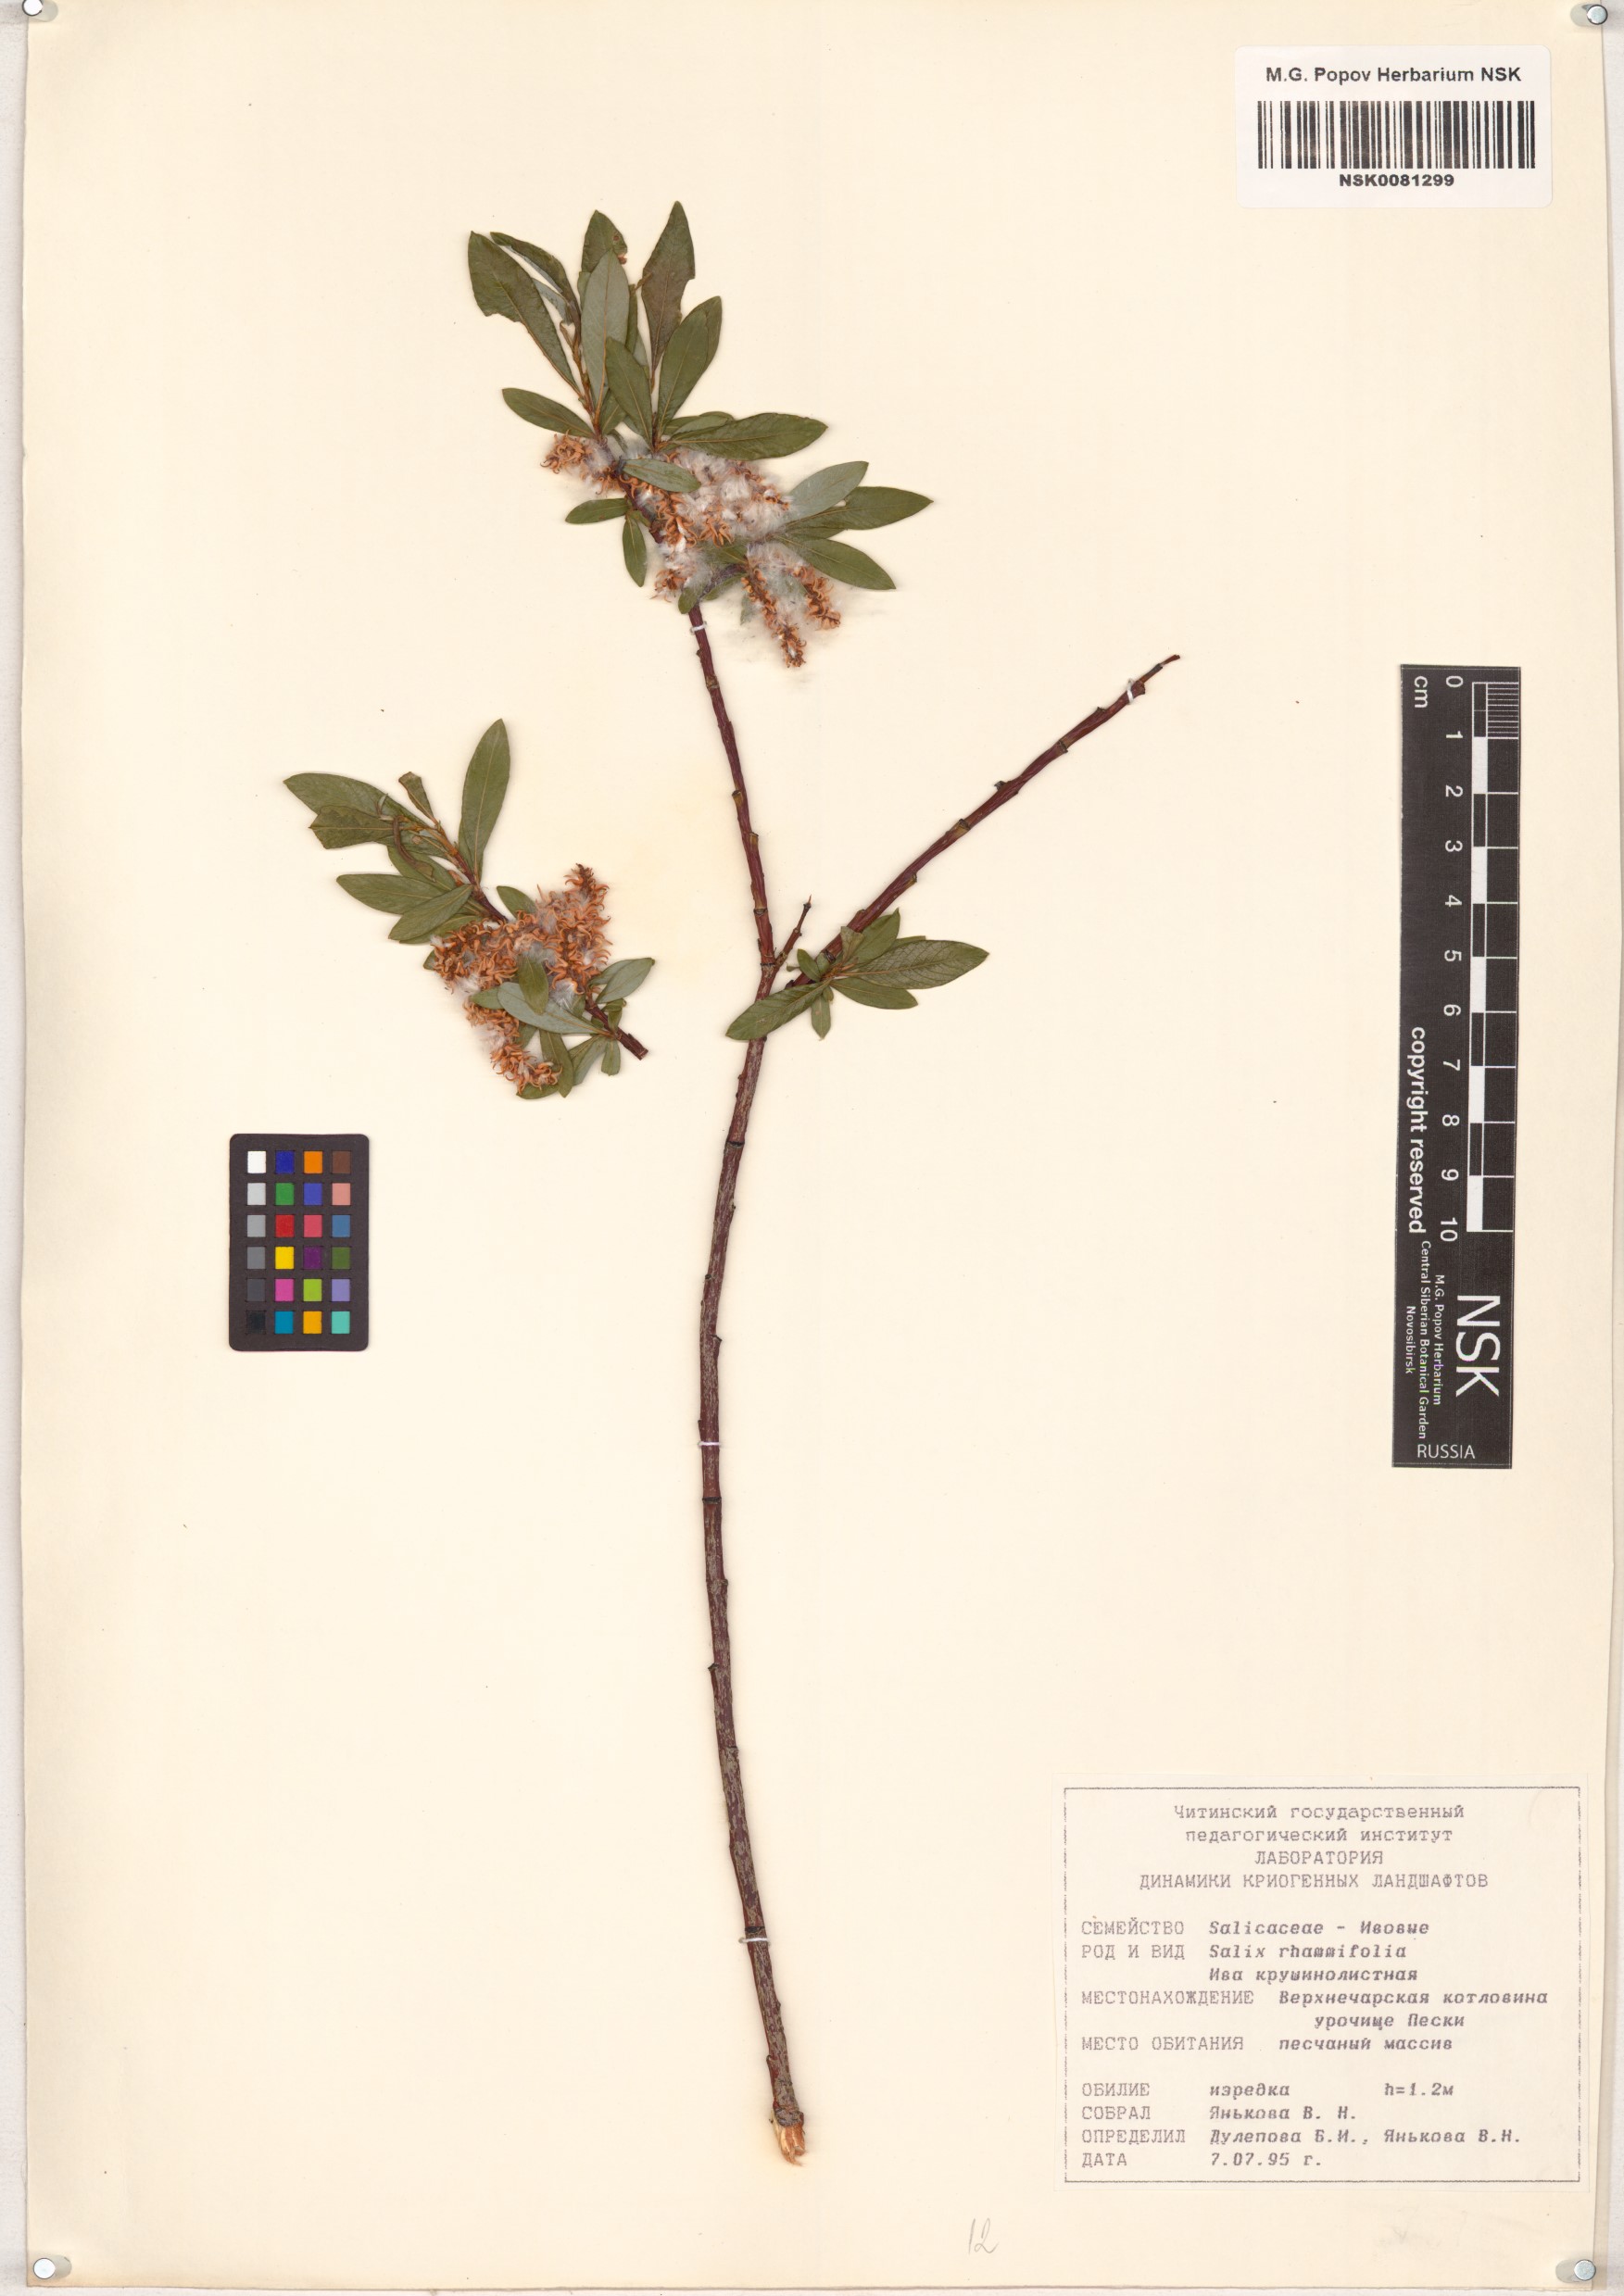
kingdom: Plantae
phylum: Tracheophyta
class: Magnoliopsida
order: Malpighiales
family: Salicaceae
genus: Salix
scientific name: Salix rhamnifolia
